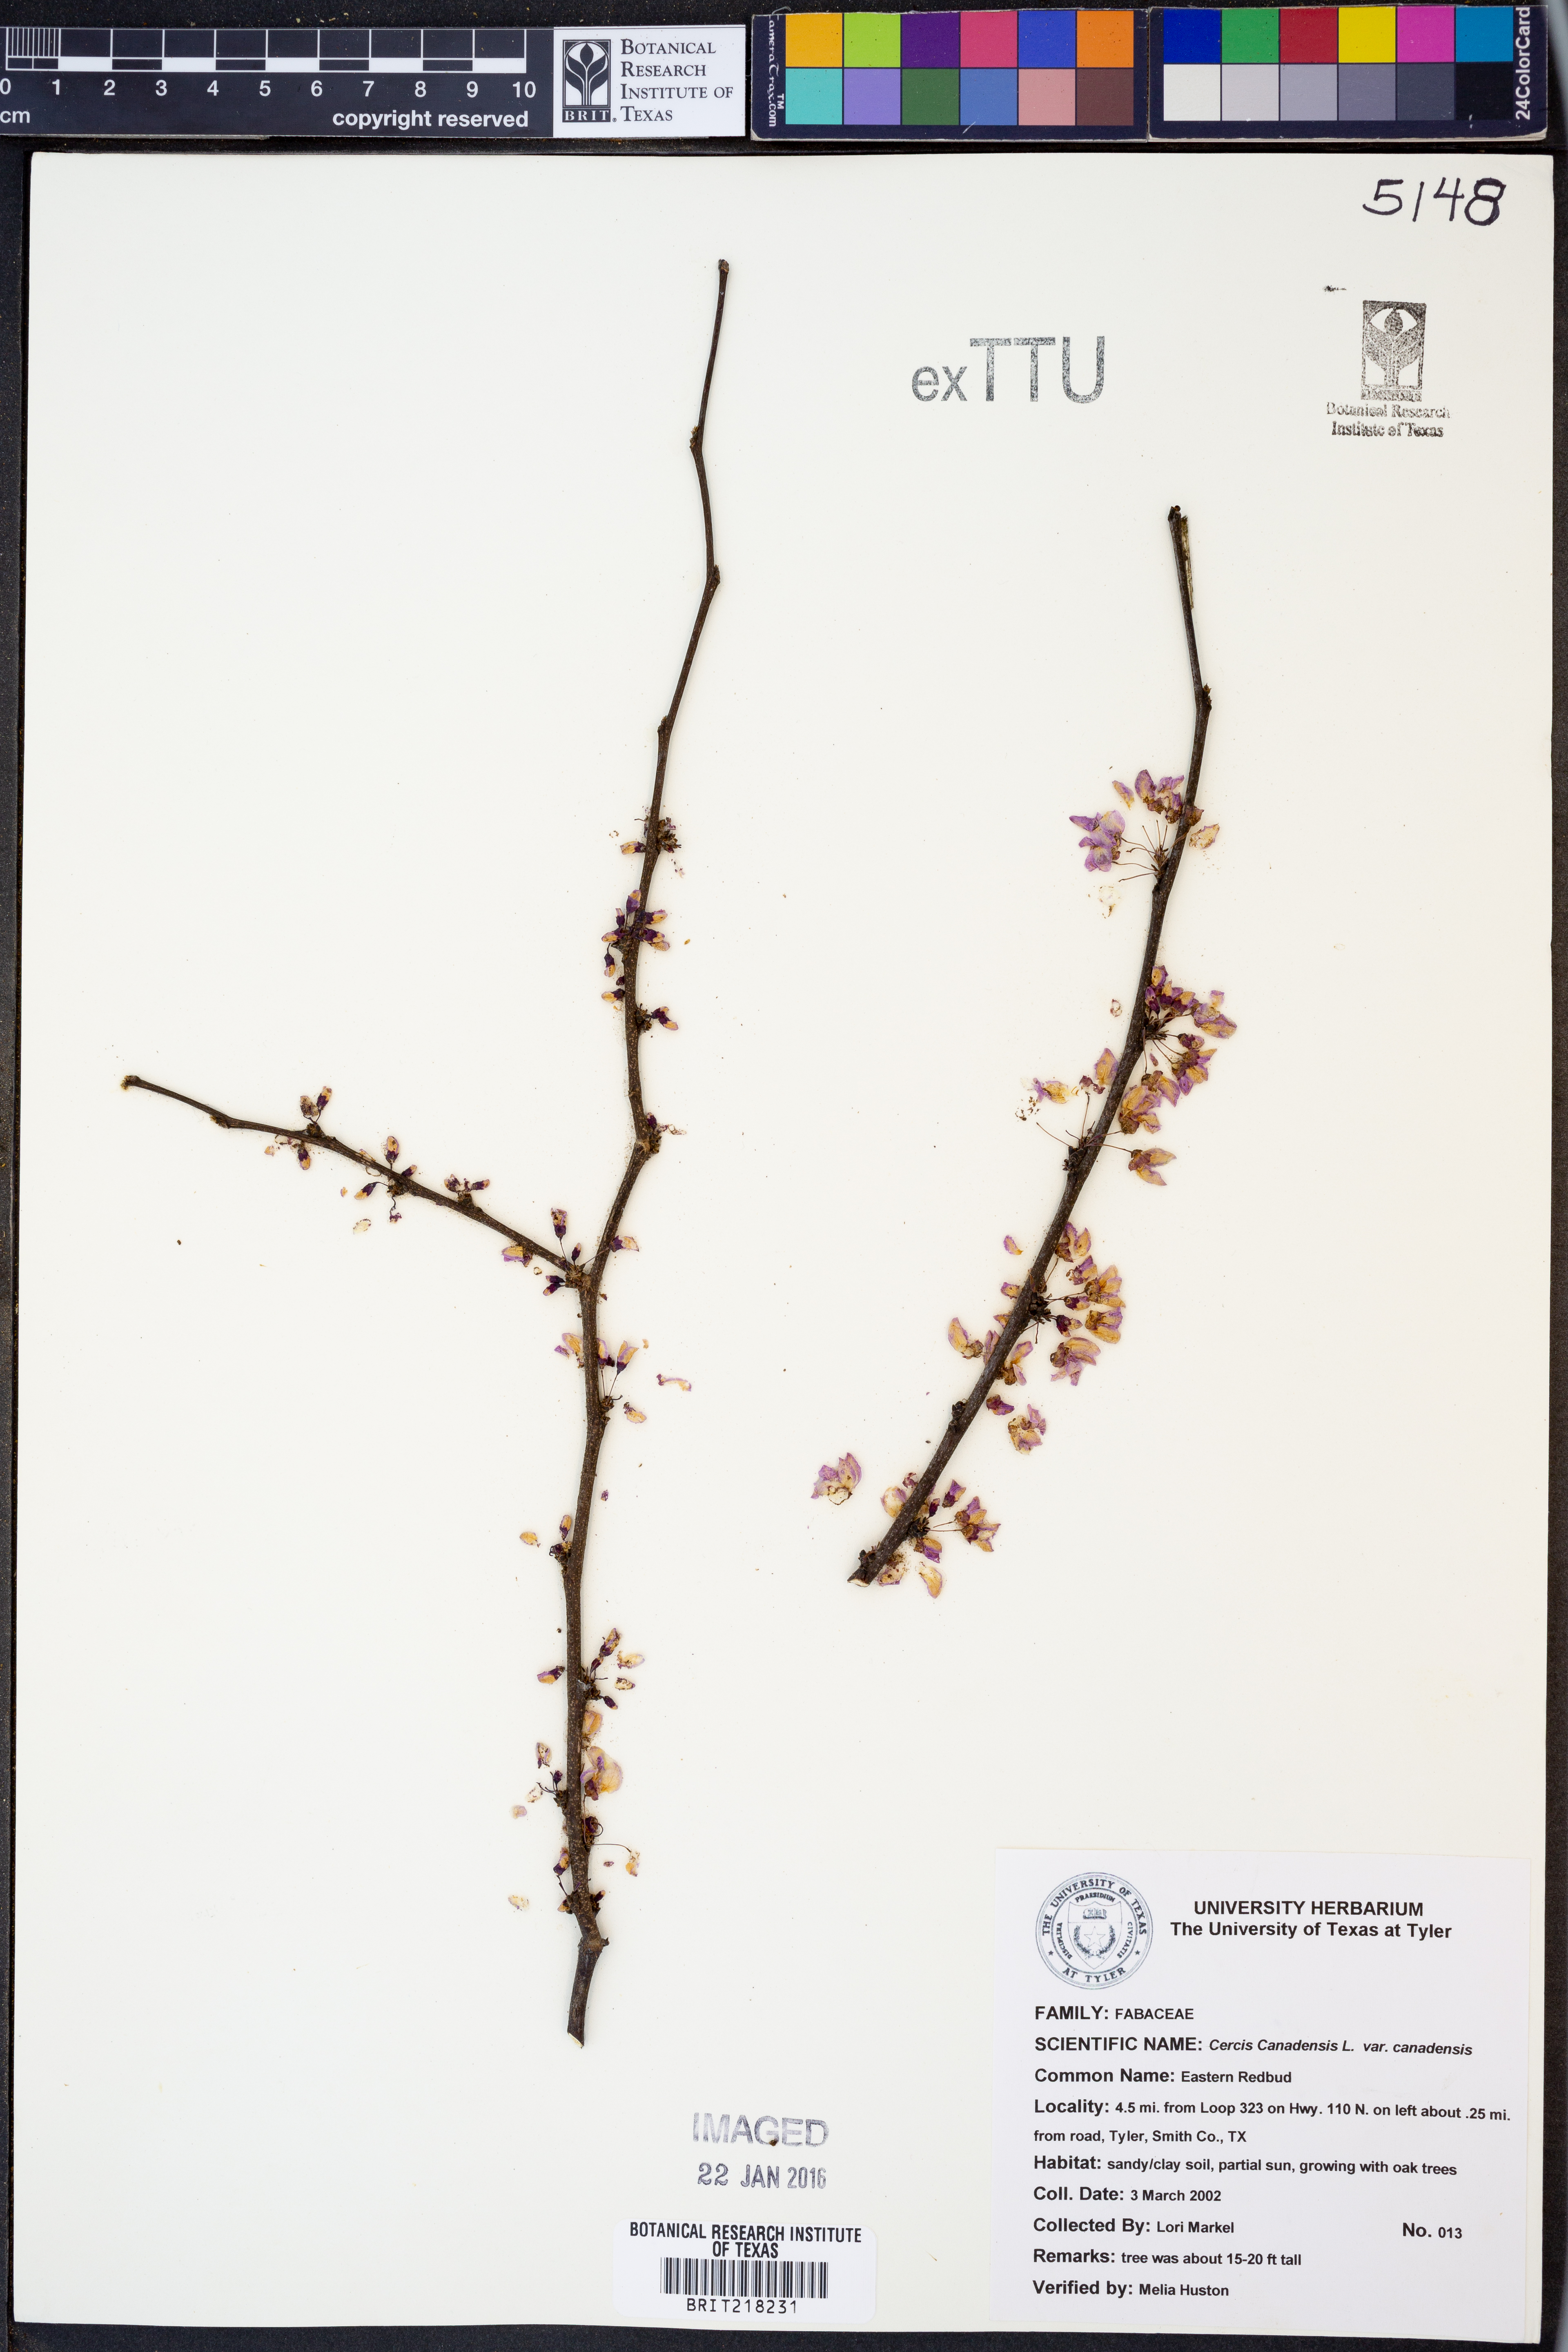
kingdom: Plantae
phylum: Tracheophyta
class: Magnoliopsida
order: Fabales
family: Fabaceae
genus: Cercis
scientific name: Cercis canadensis
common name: Eastern redbud
